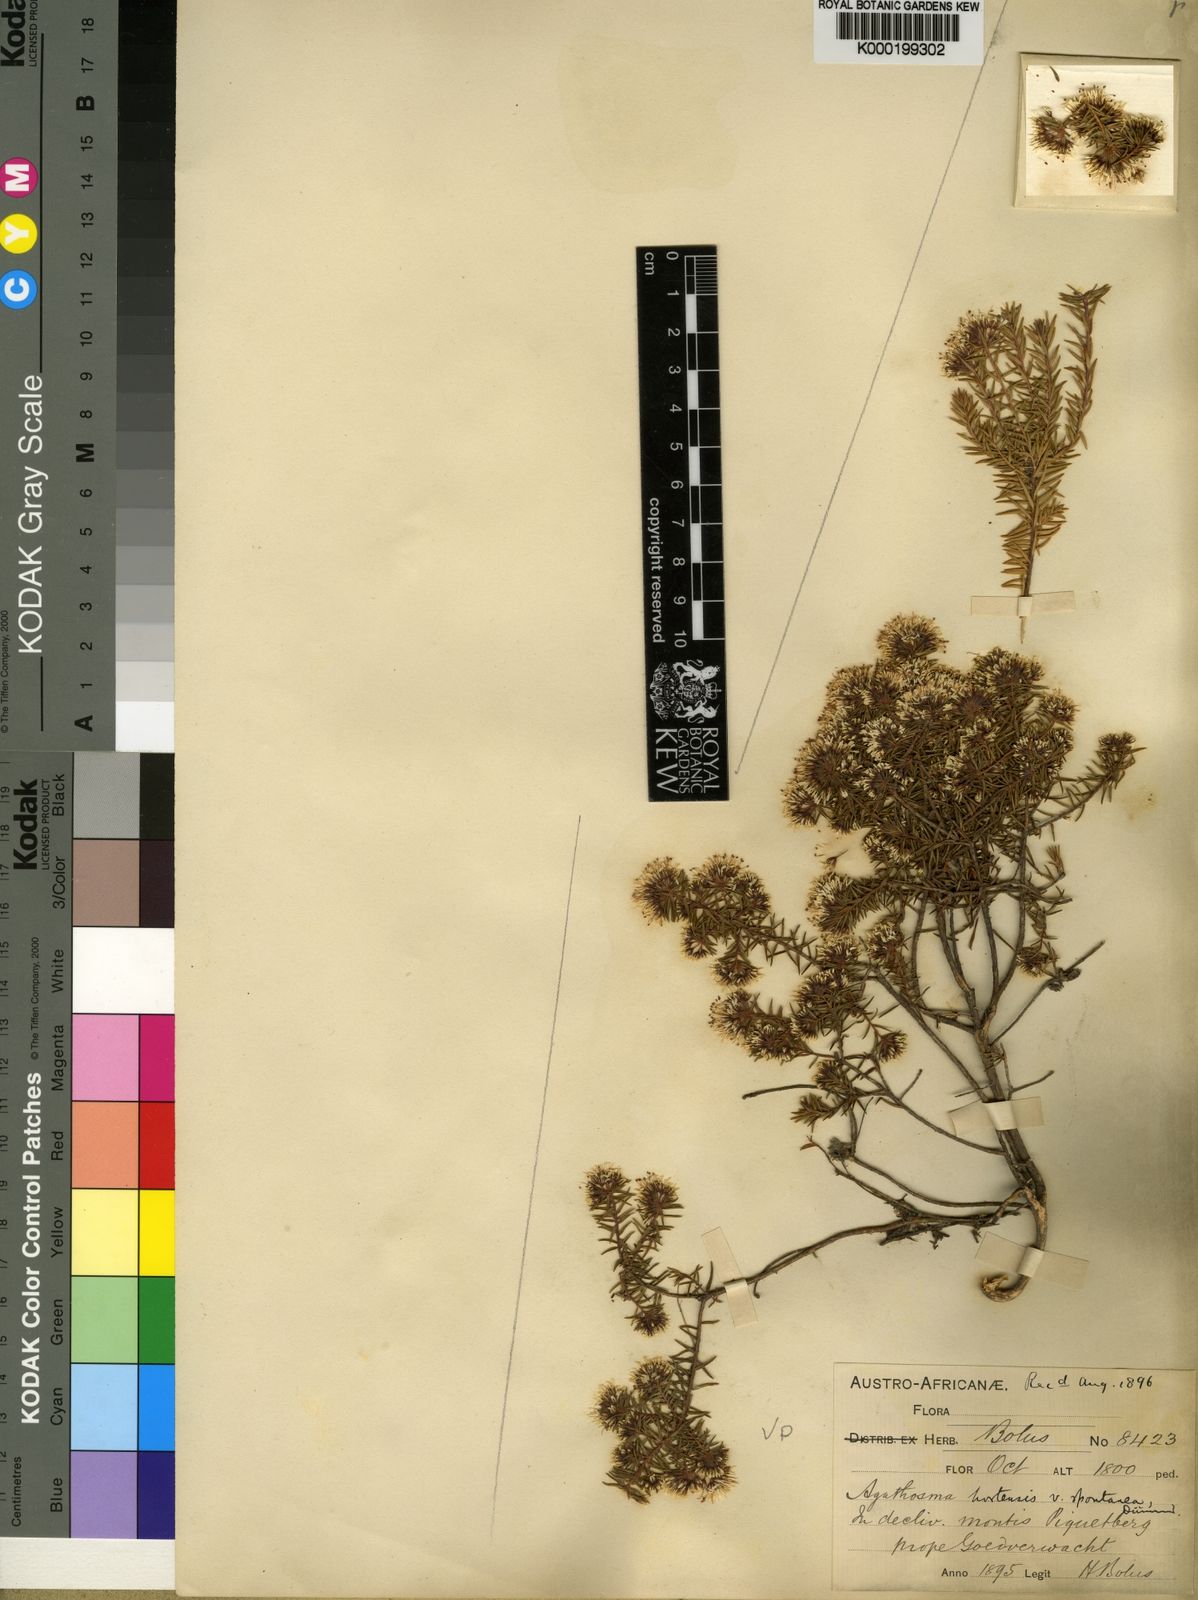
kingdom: Plantae
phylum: Tracheophyta
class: Magnoliopsida
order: Sapindales
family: Rutaceae
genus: Agathosma
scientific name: Agathosma
